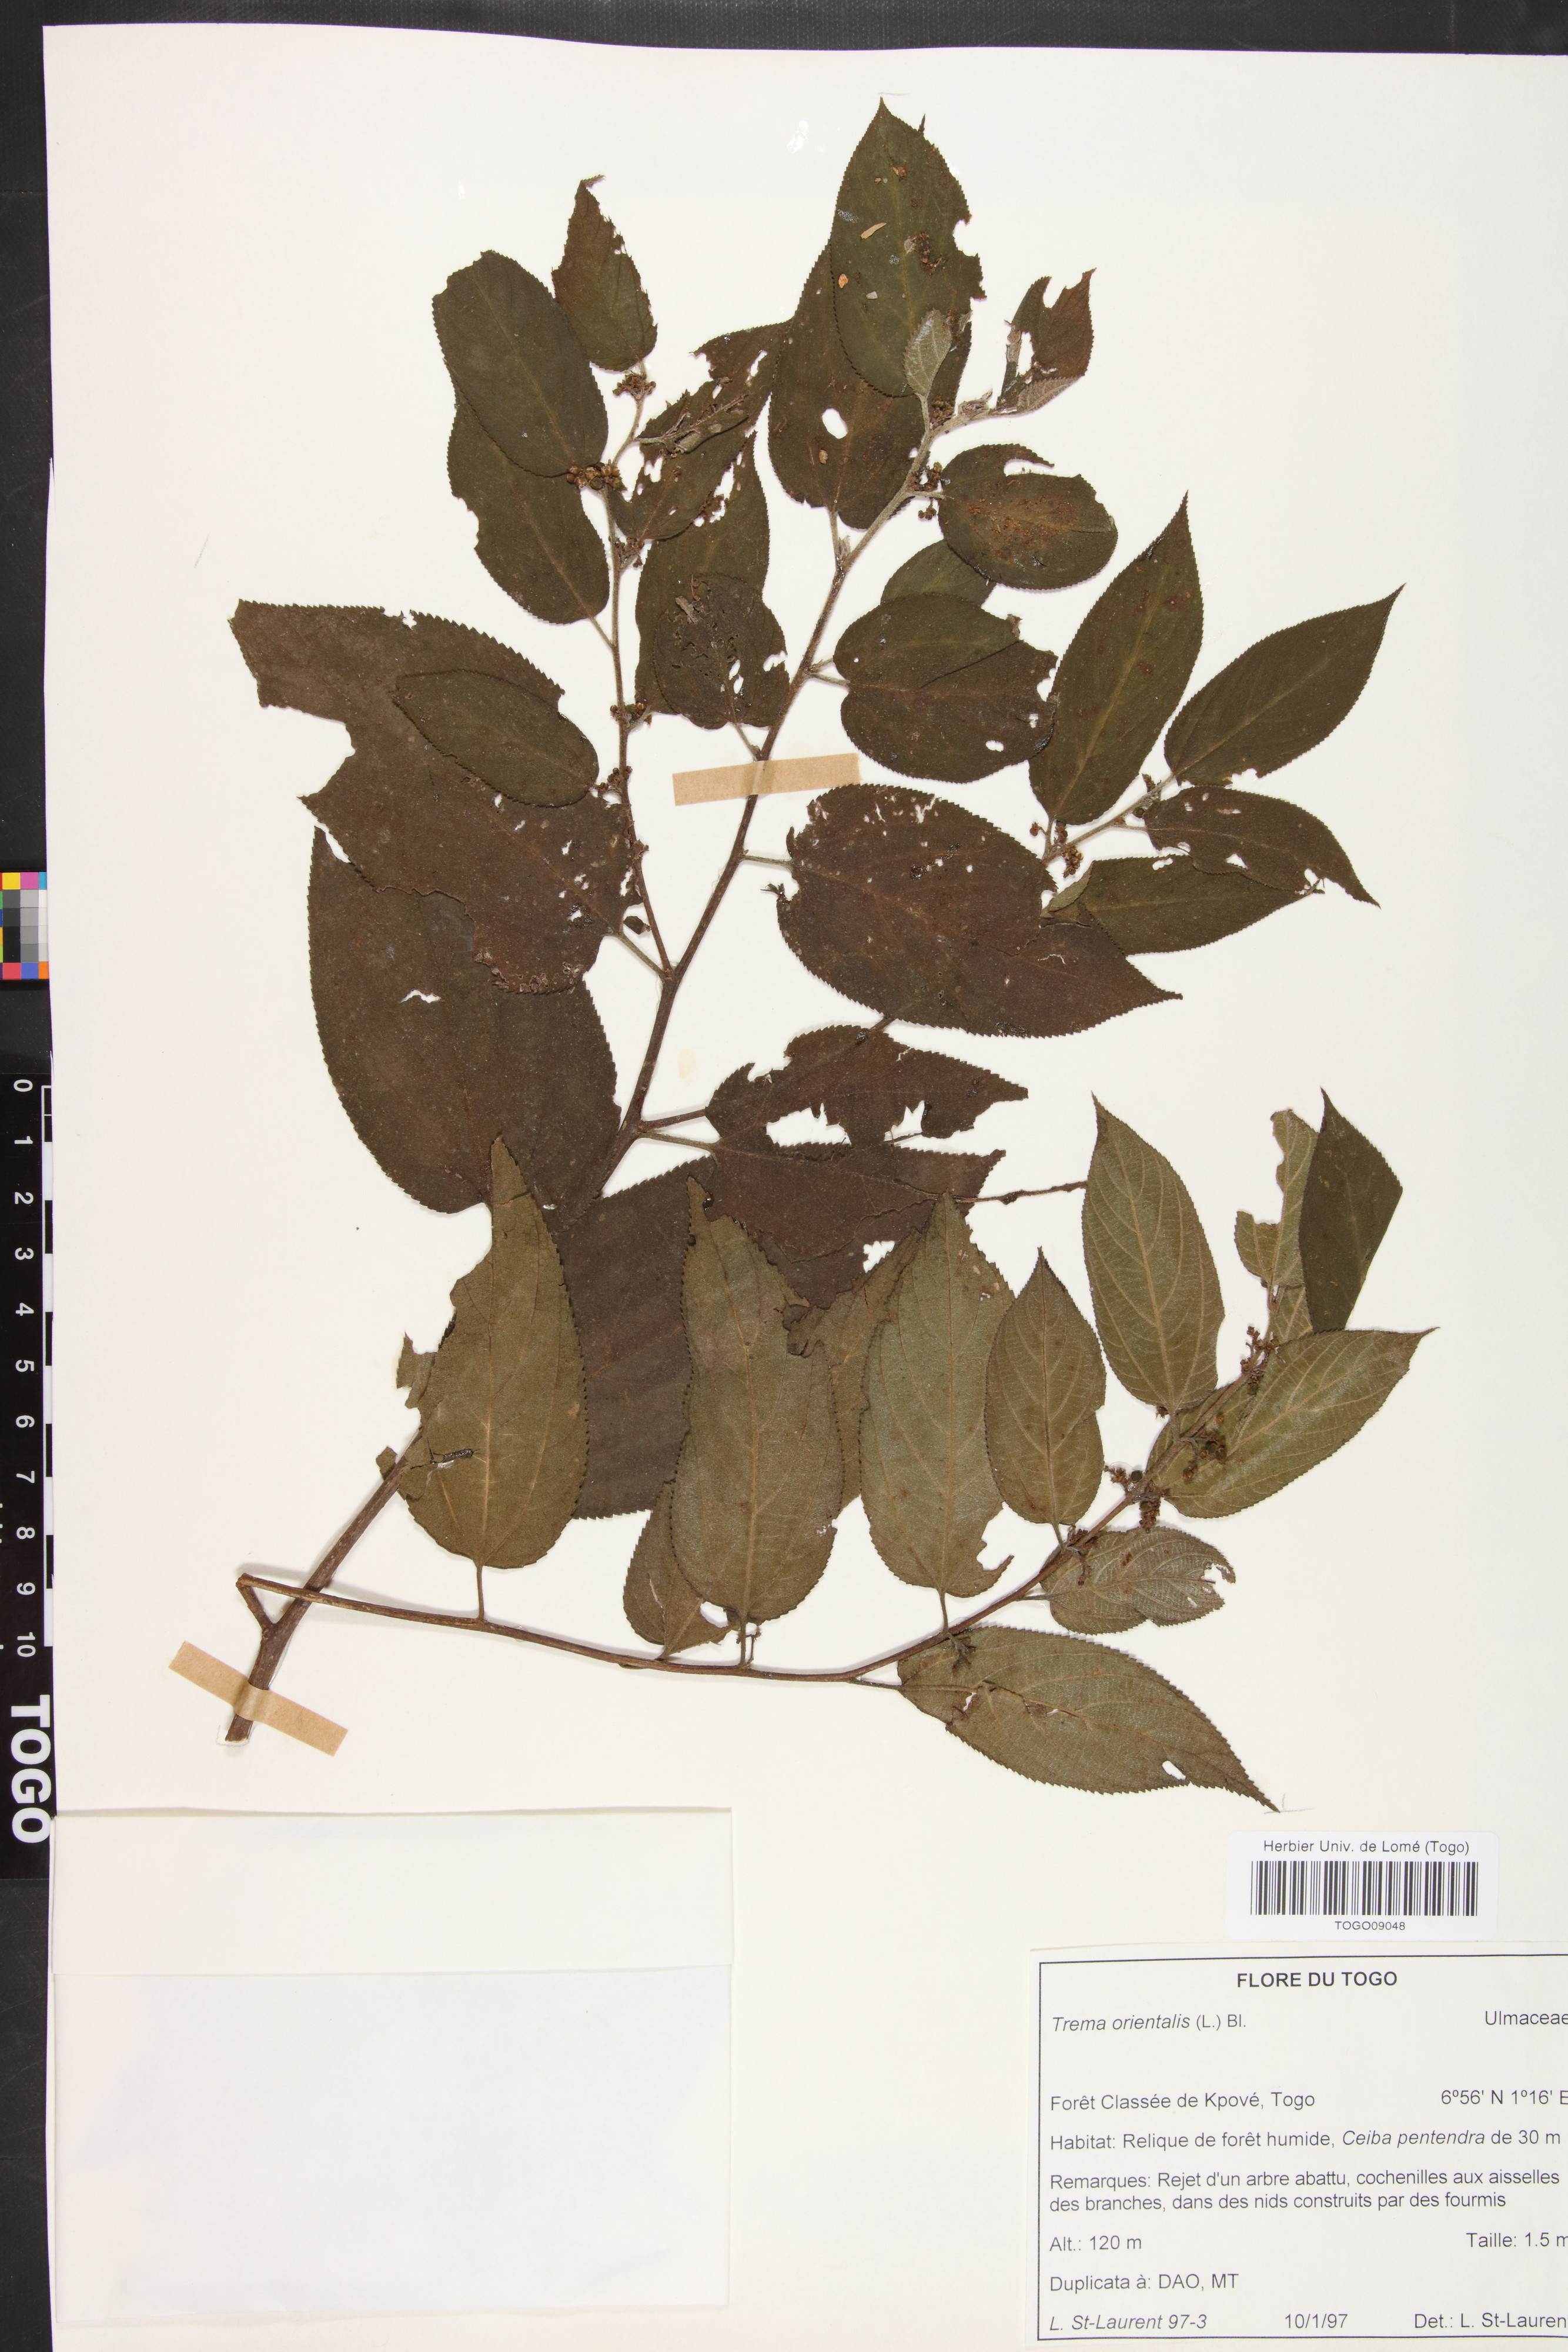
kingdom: Plantae
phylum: Tracheophyta
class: Magnoliopsida
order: Rosales
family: Cannabaceae
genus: Trema
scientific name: Trema orientale
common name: Indian charcoal tree
